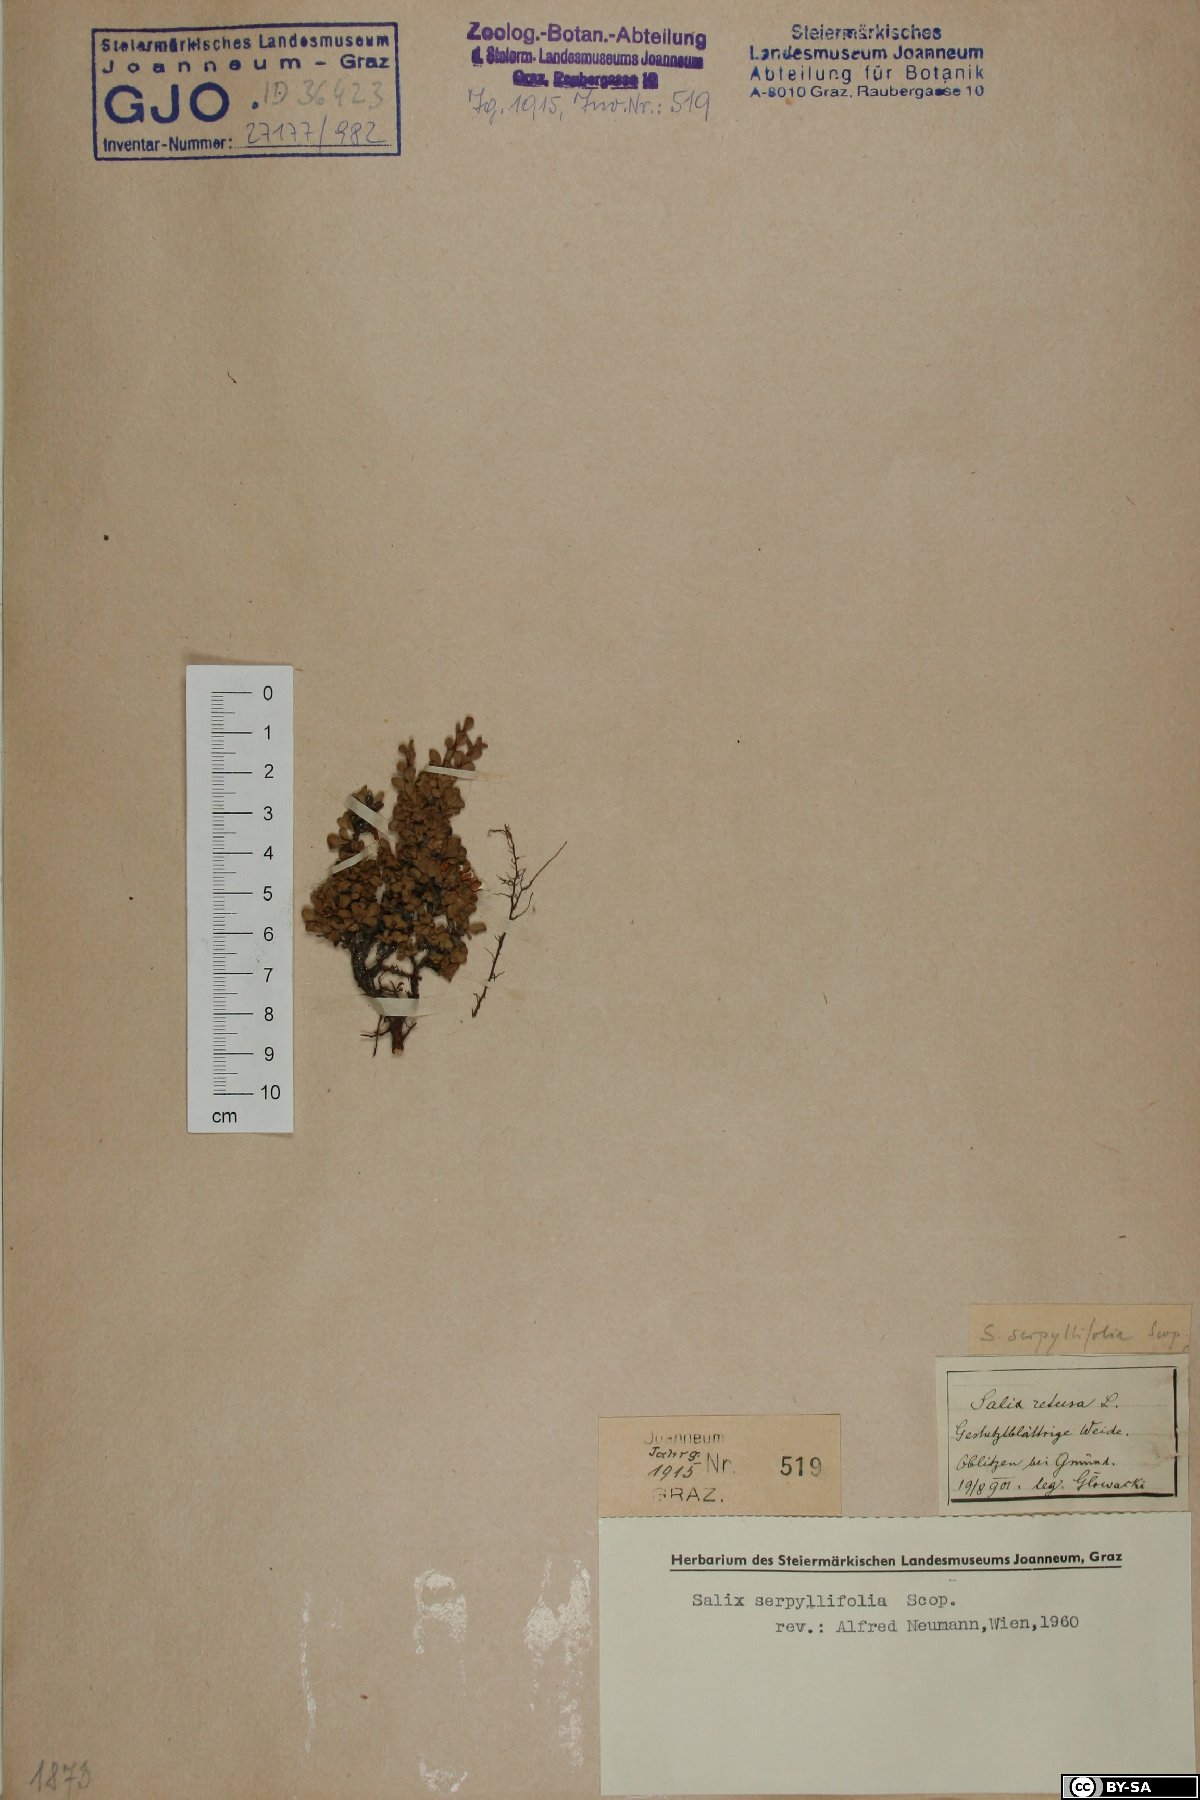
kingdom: Plantae
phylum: Tracheophyta
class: Magnoliopsida
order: Malpighiales
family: Salicaceae
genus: Salix
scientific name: Salix serpillifolia
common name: Thyme-leaf willow
